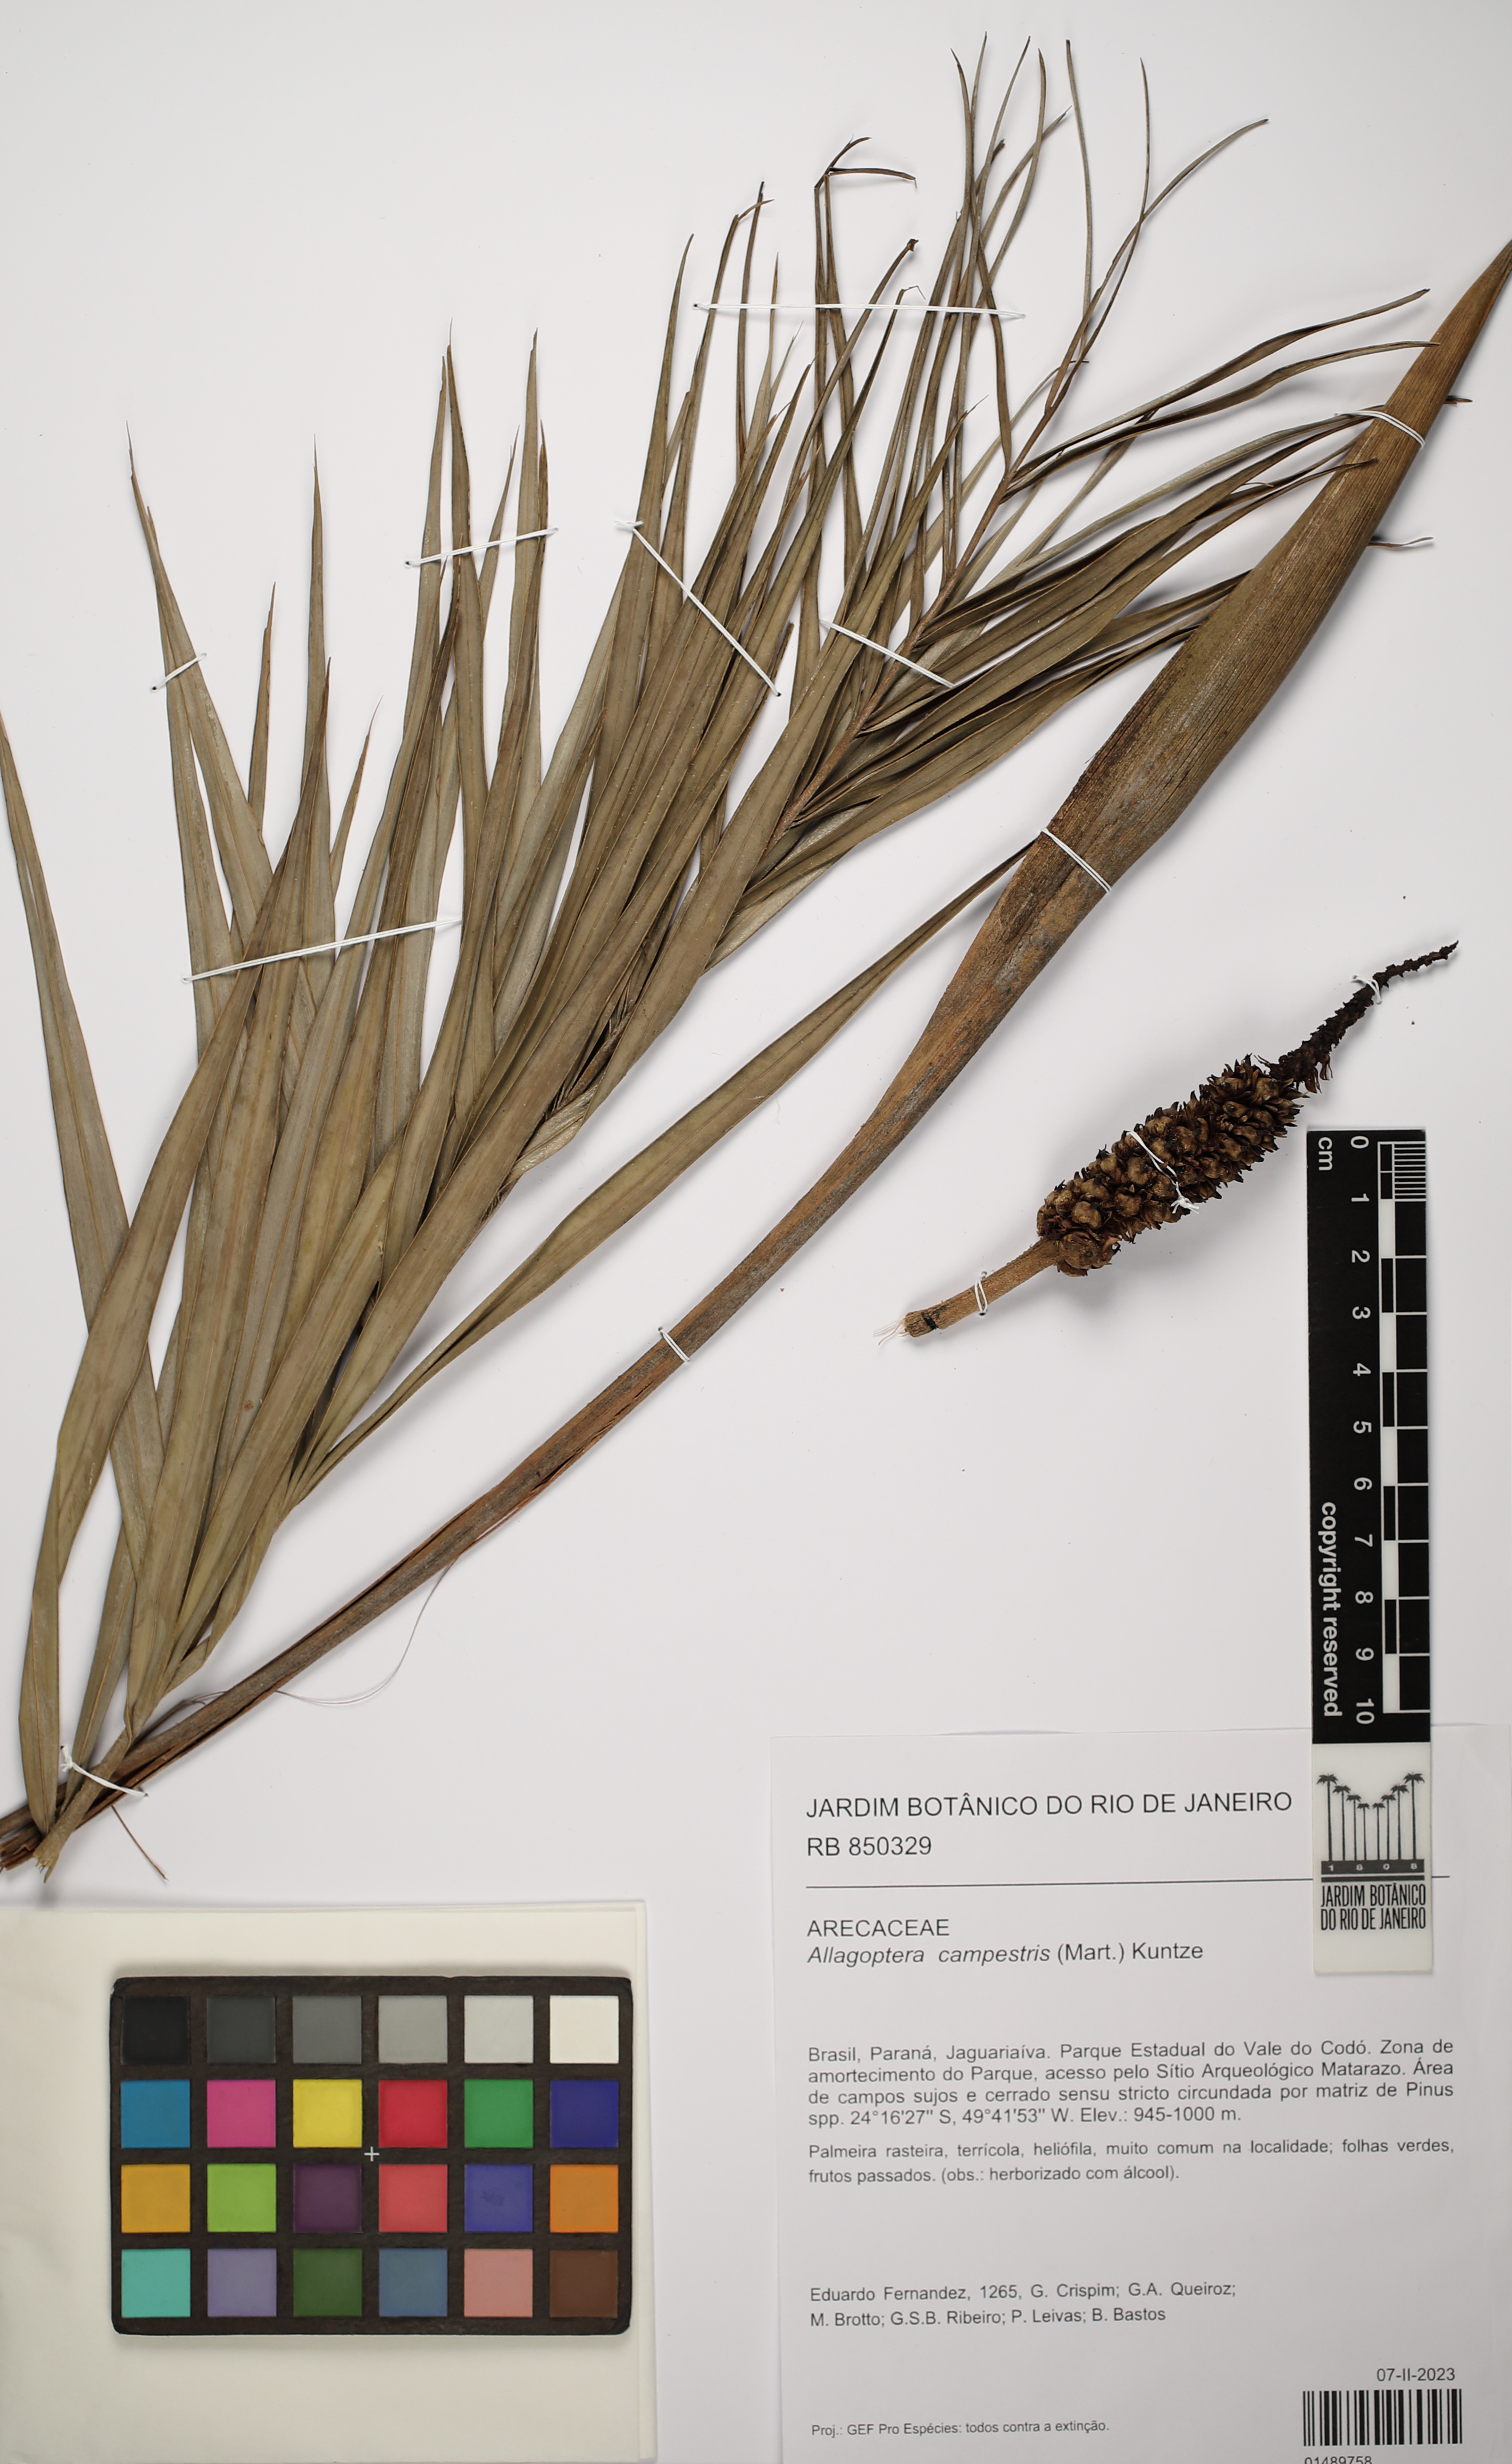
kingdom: Plantae
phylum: Tracheophyta
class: Liliopsida
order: Arecales
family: Arecaceae
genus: Allagoptera
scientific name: Allagoptera campestris
